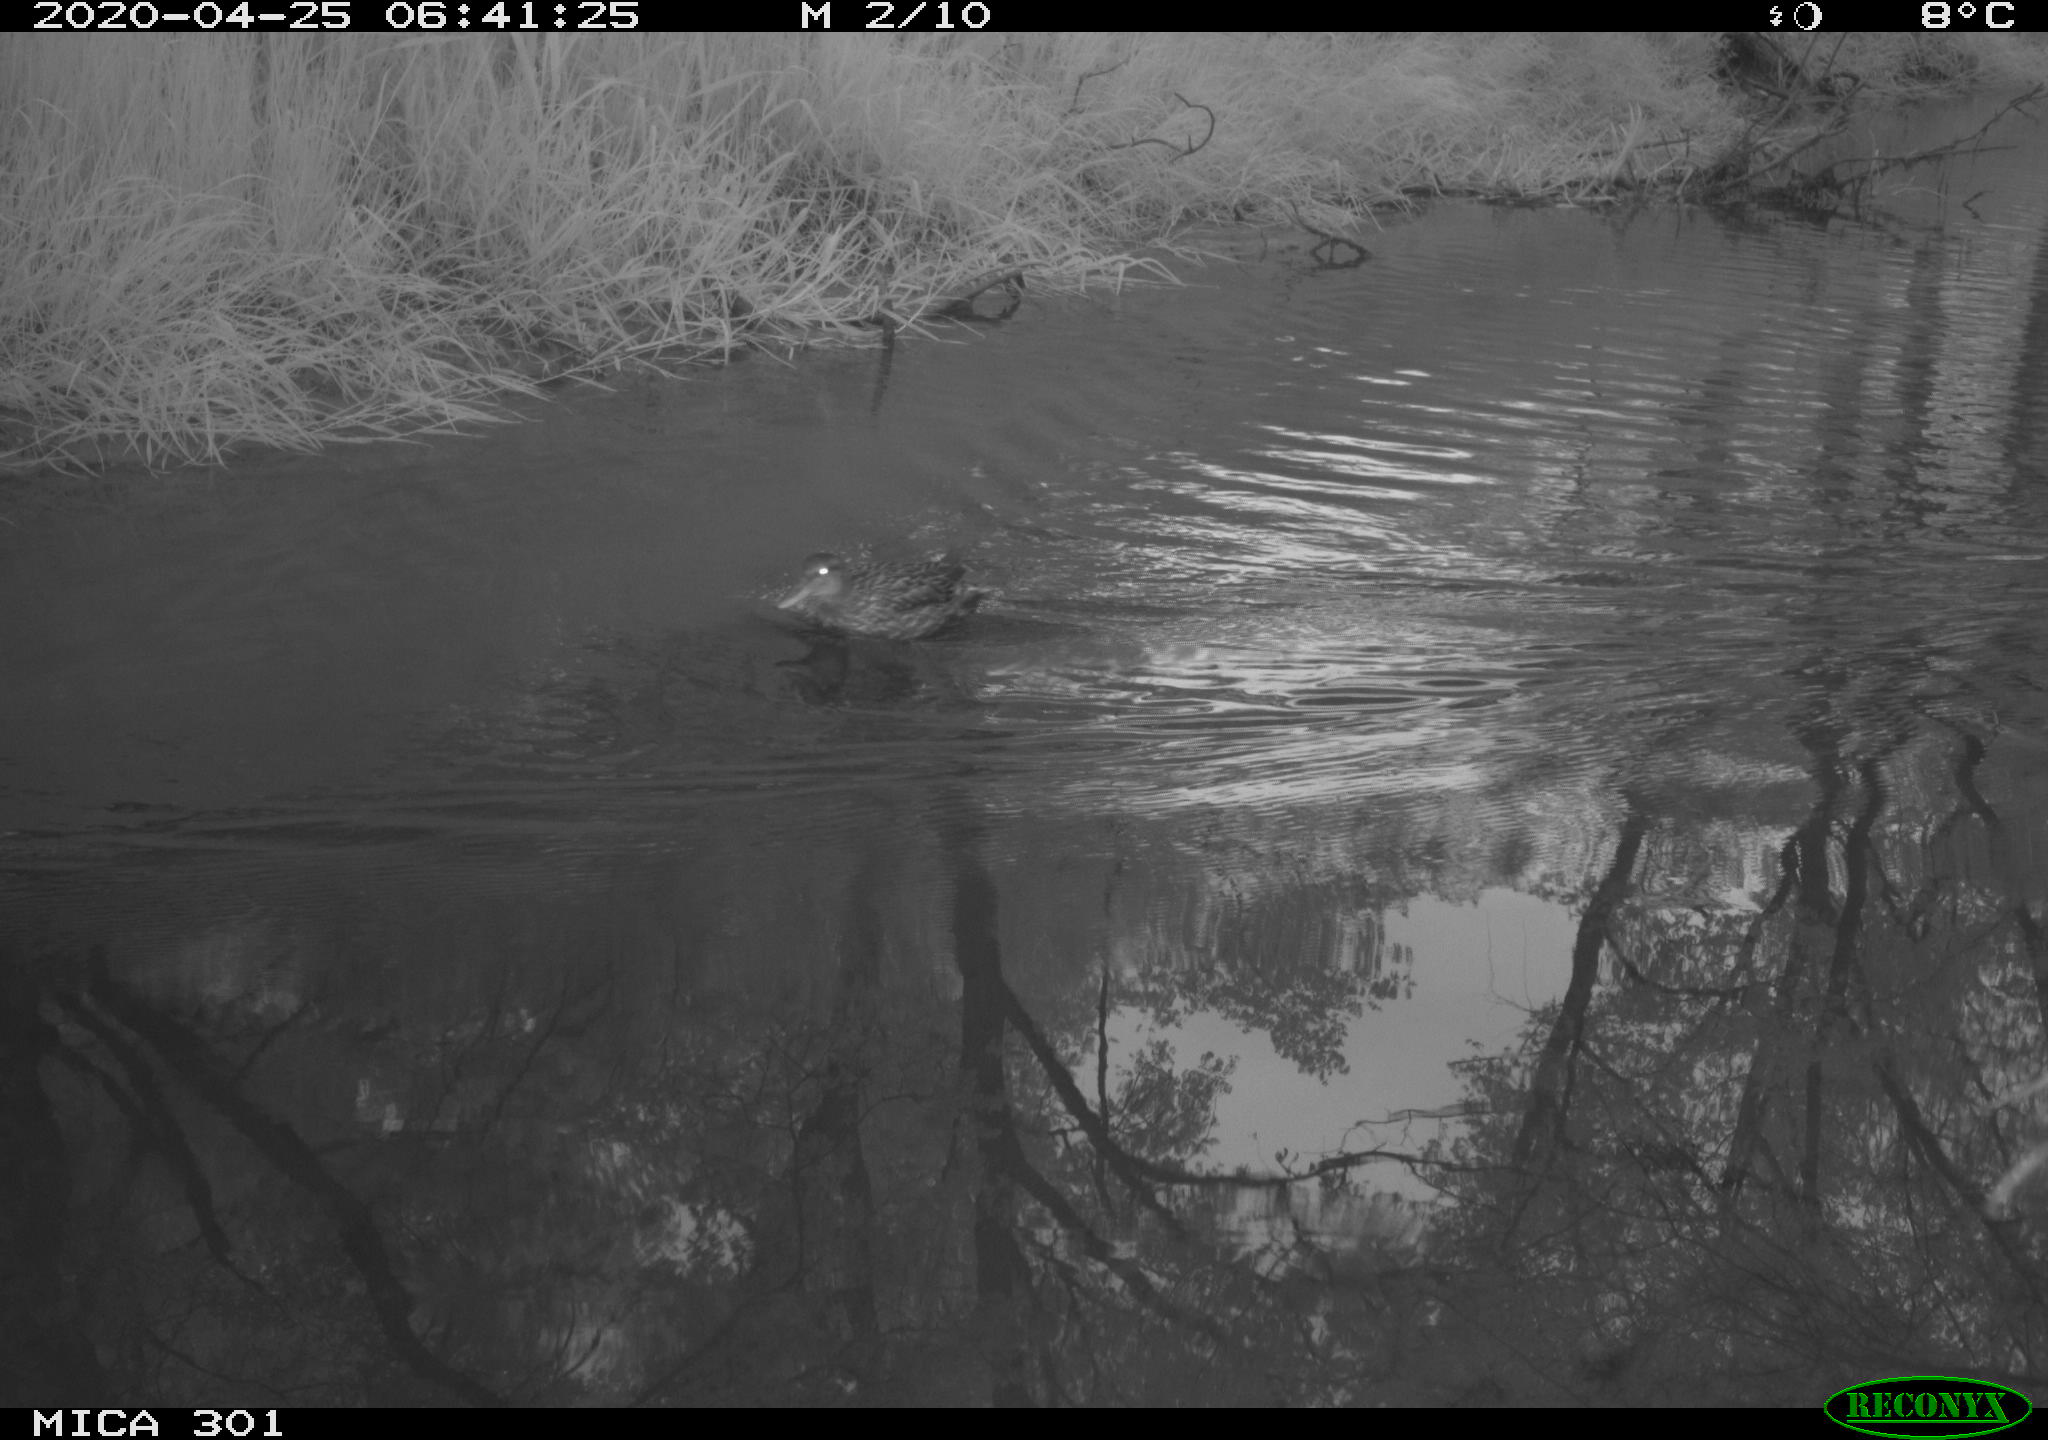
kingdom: Animalia
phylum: Chordata
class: Aves
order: Anseriformes
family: Anatidae
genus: Mareca
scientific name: Mareca strepera
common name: Gadwall
